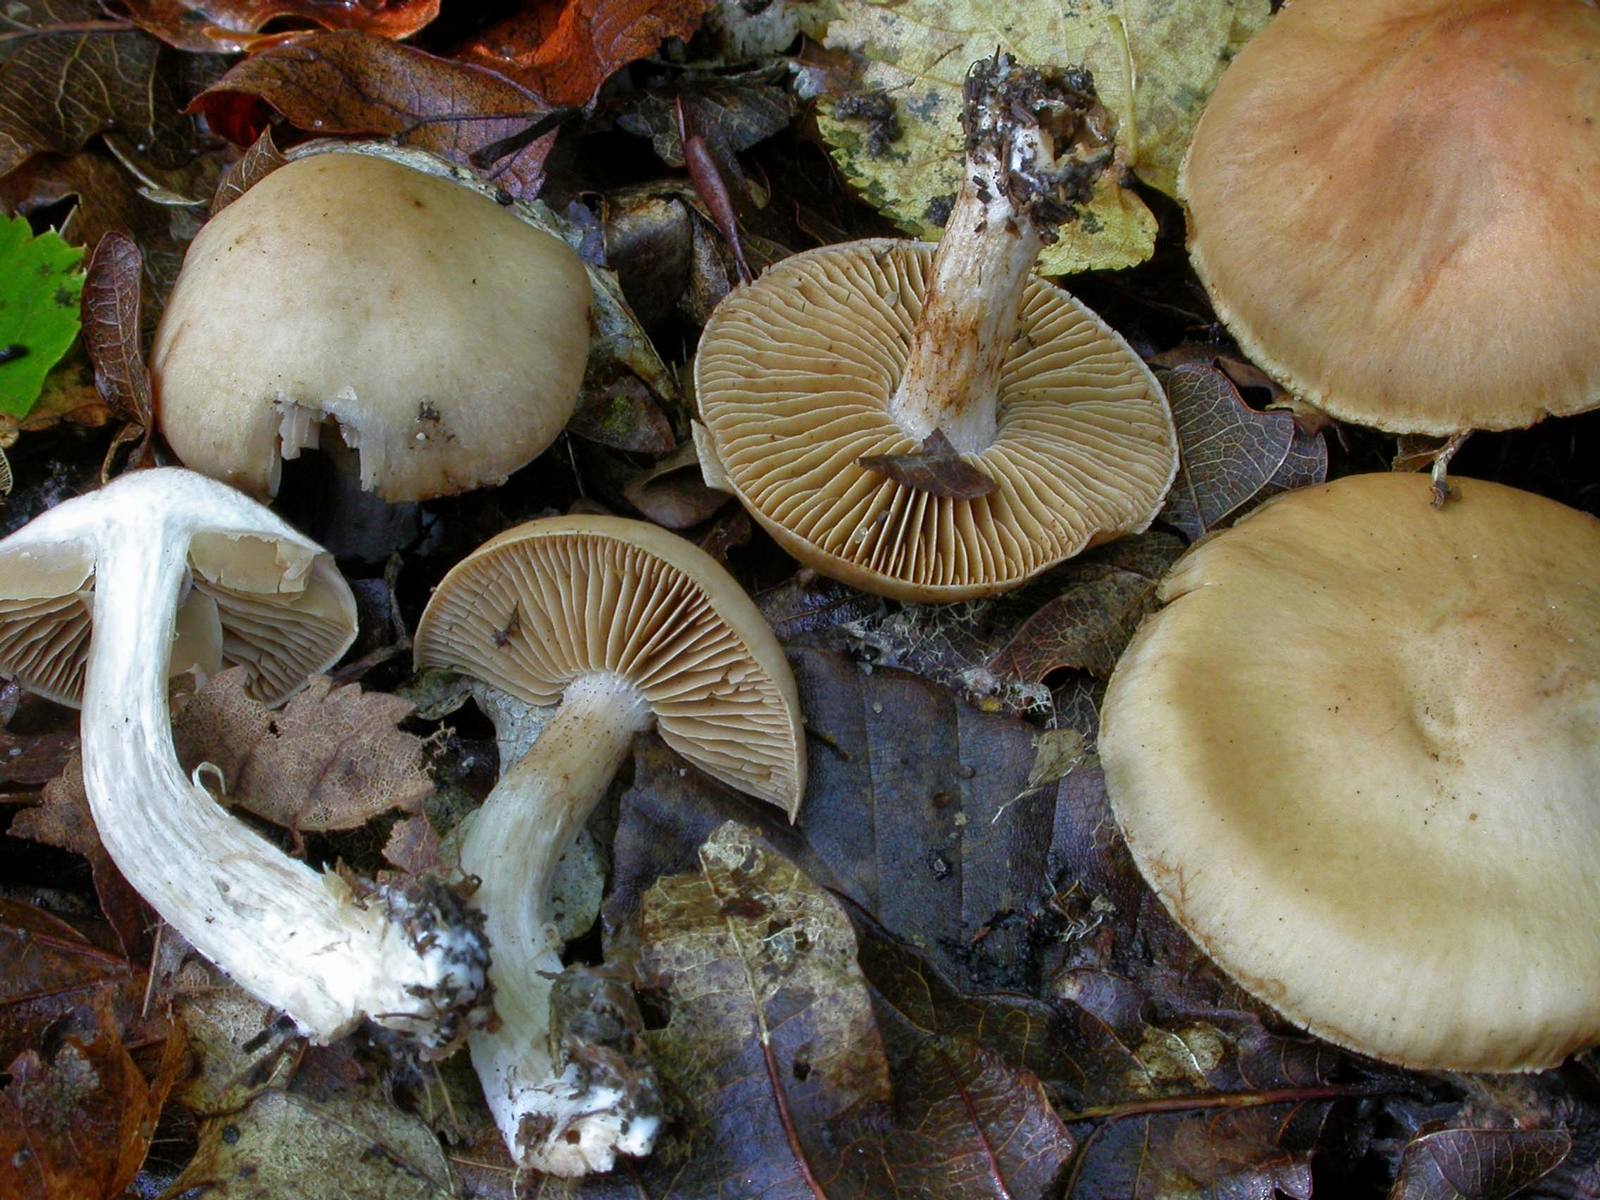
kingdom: Fungi
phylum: Basidiomycota
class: Agaricomycetes
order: Agaricales
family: Cortinariaceae
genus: Cortinarius
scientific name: Cortinarius glabrellus
